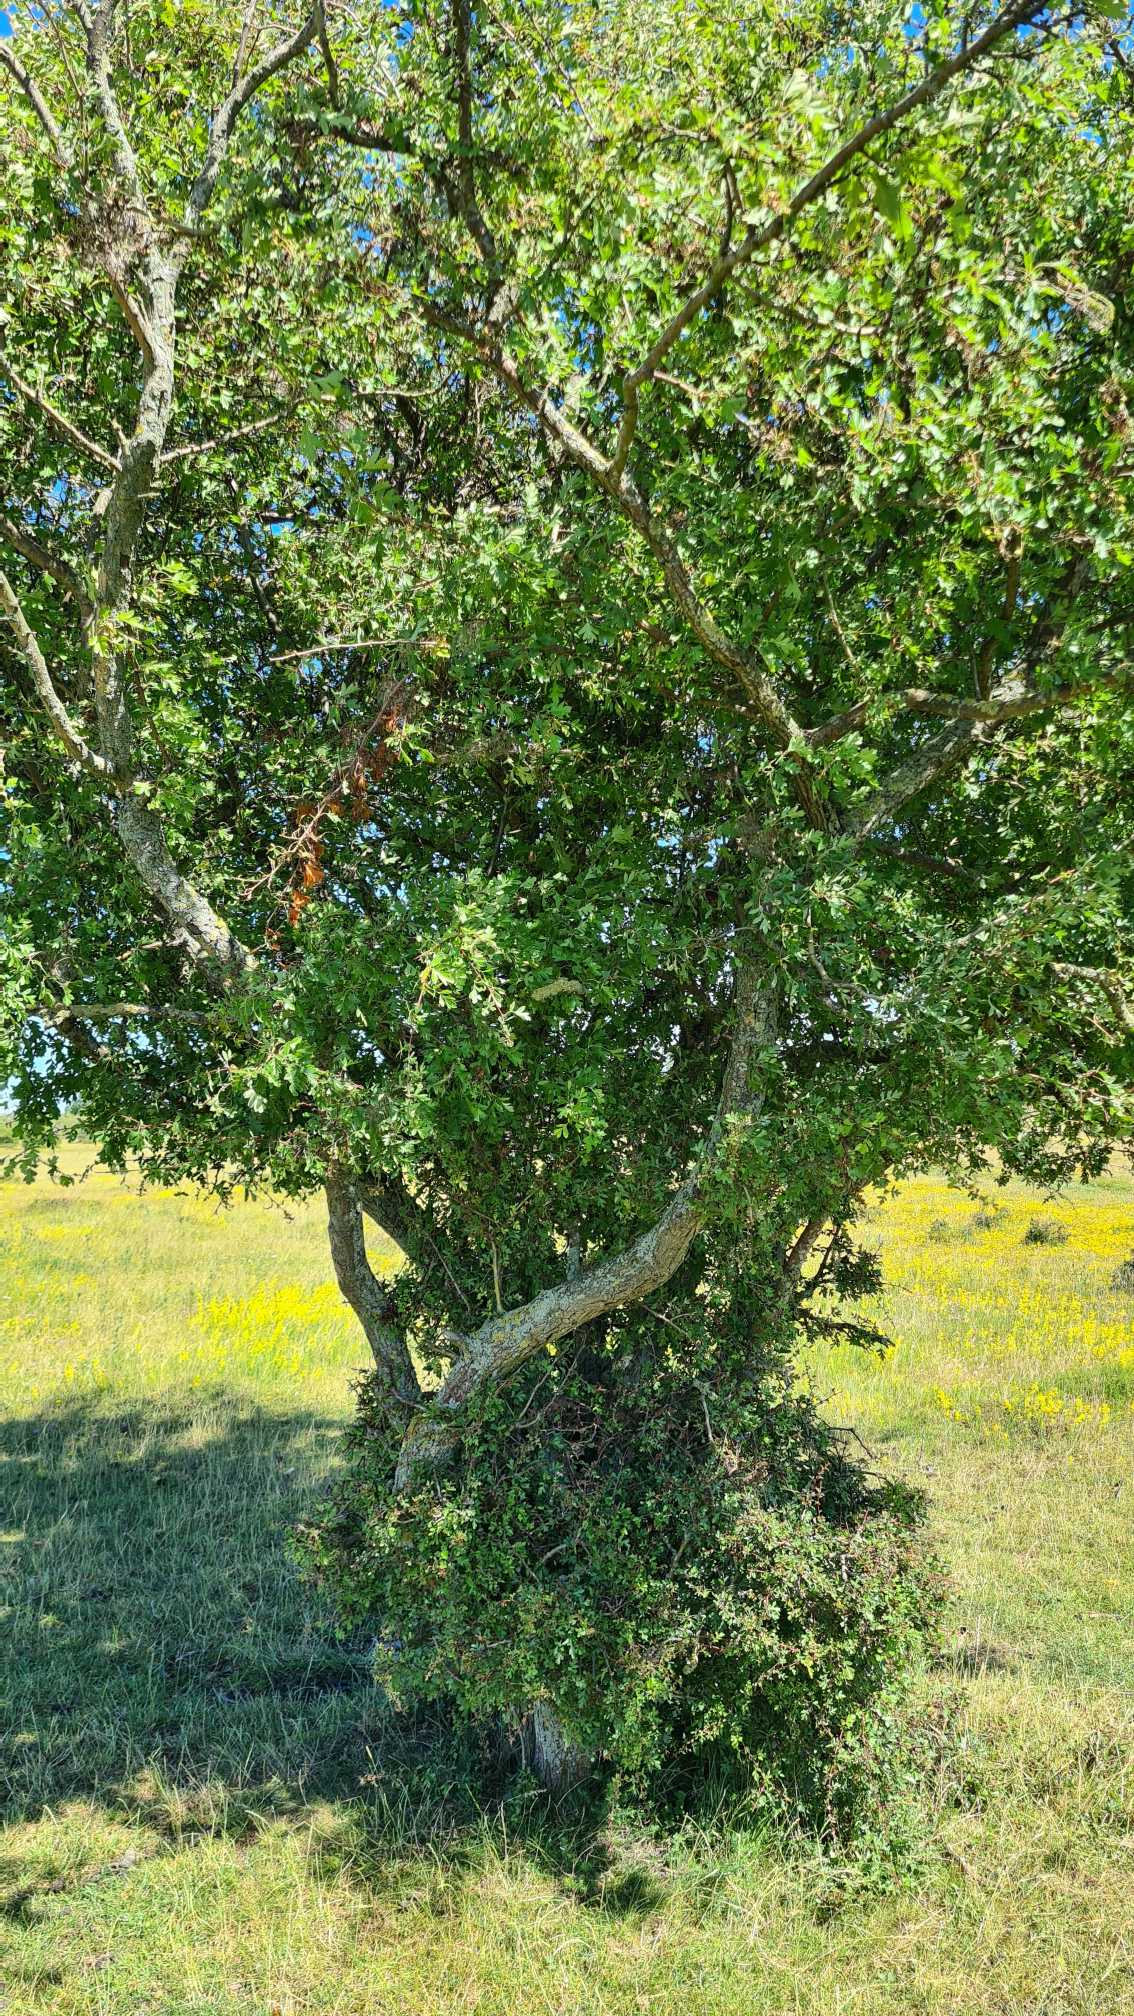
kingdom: Plantae
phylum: Tracheophyta
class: Magnoliopsida
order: Rosales
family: Rosaceae
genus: Crataegus
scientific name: Crataegus monogyna
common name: Engriflet hvidtjørn
